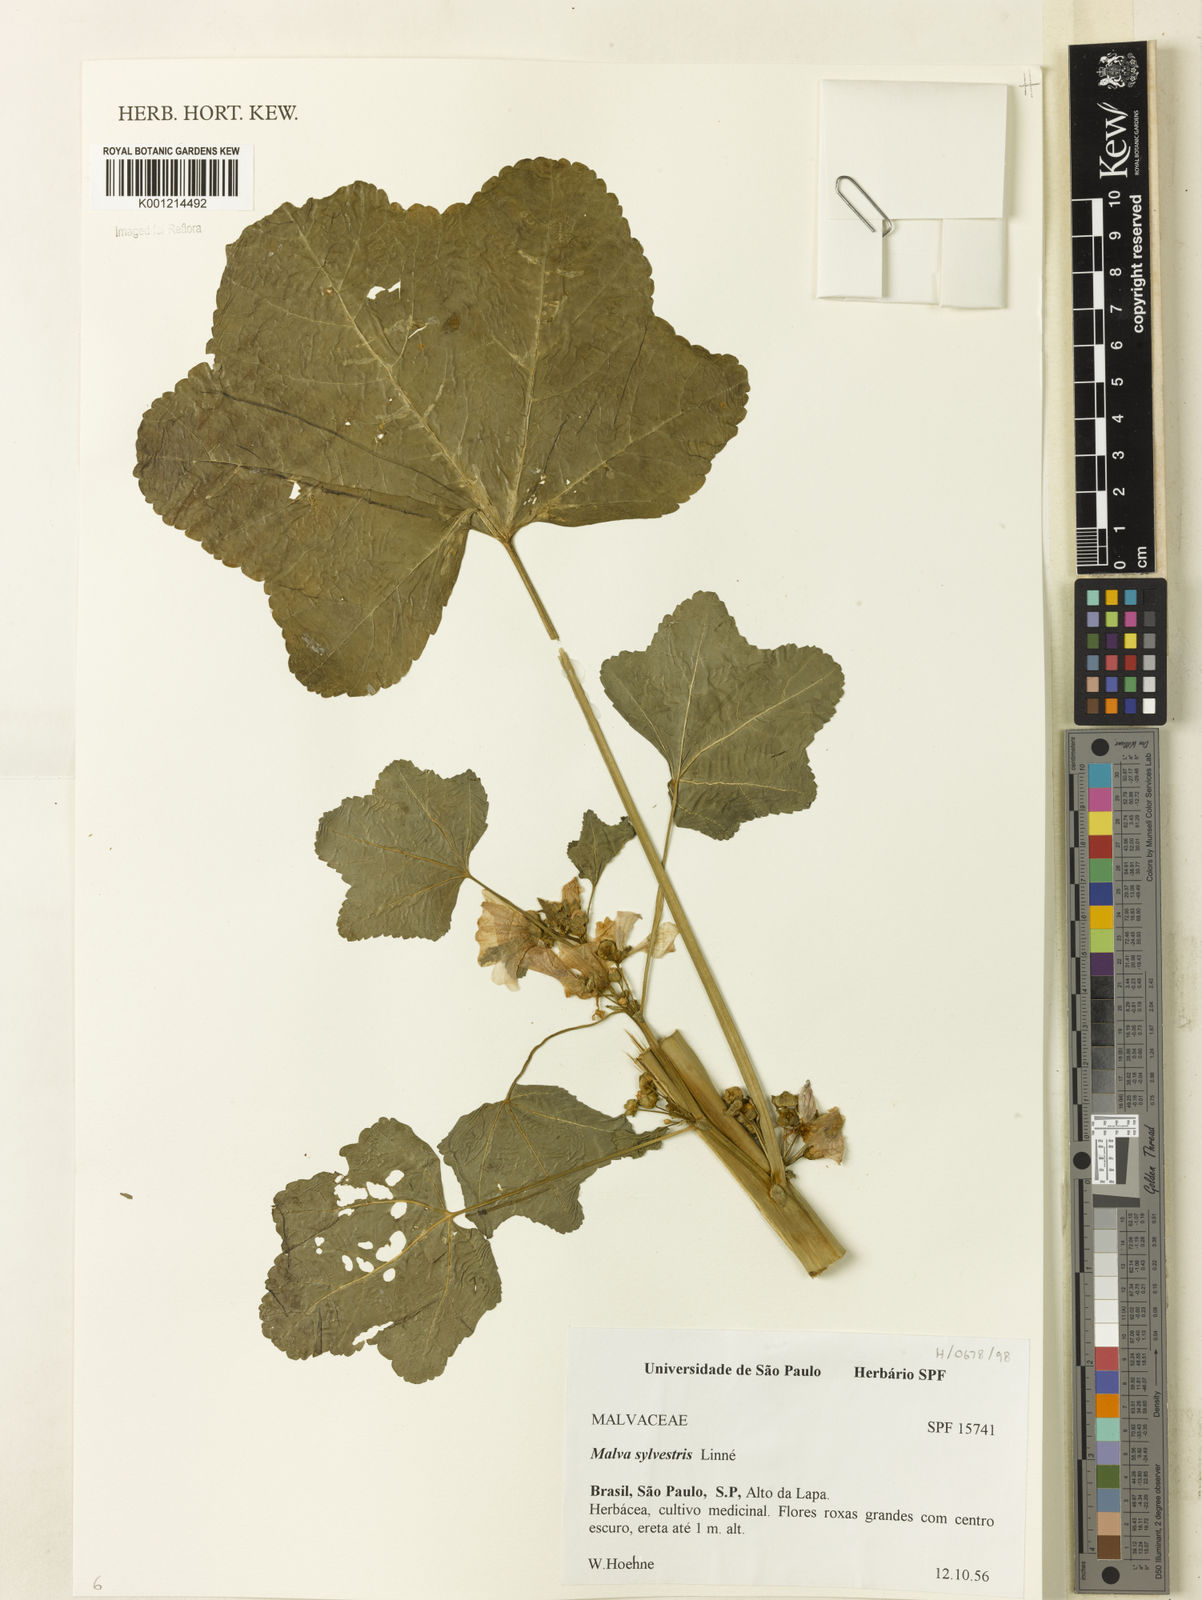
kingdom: Plantae
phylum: Tracheophyta
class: Magnoliopsida
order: Malvales
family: Malvaceae
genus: Malva
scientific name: Malva sylvestris
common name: Common mallow
